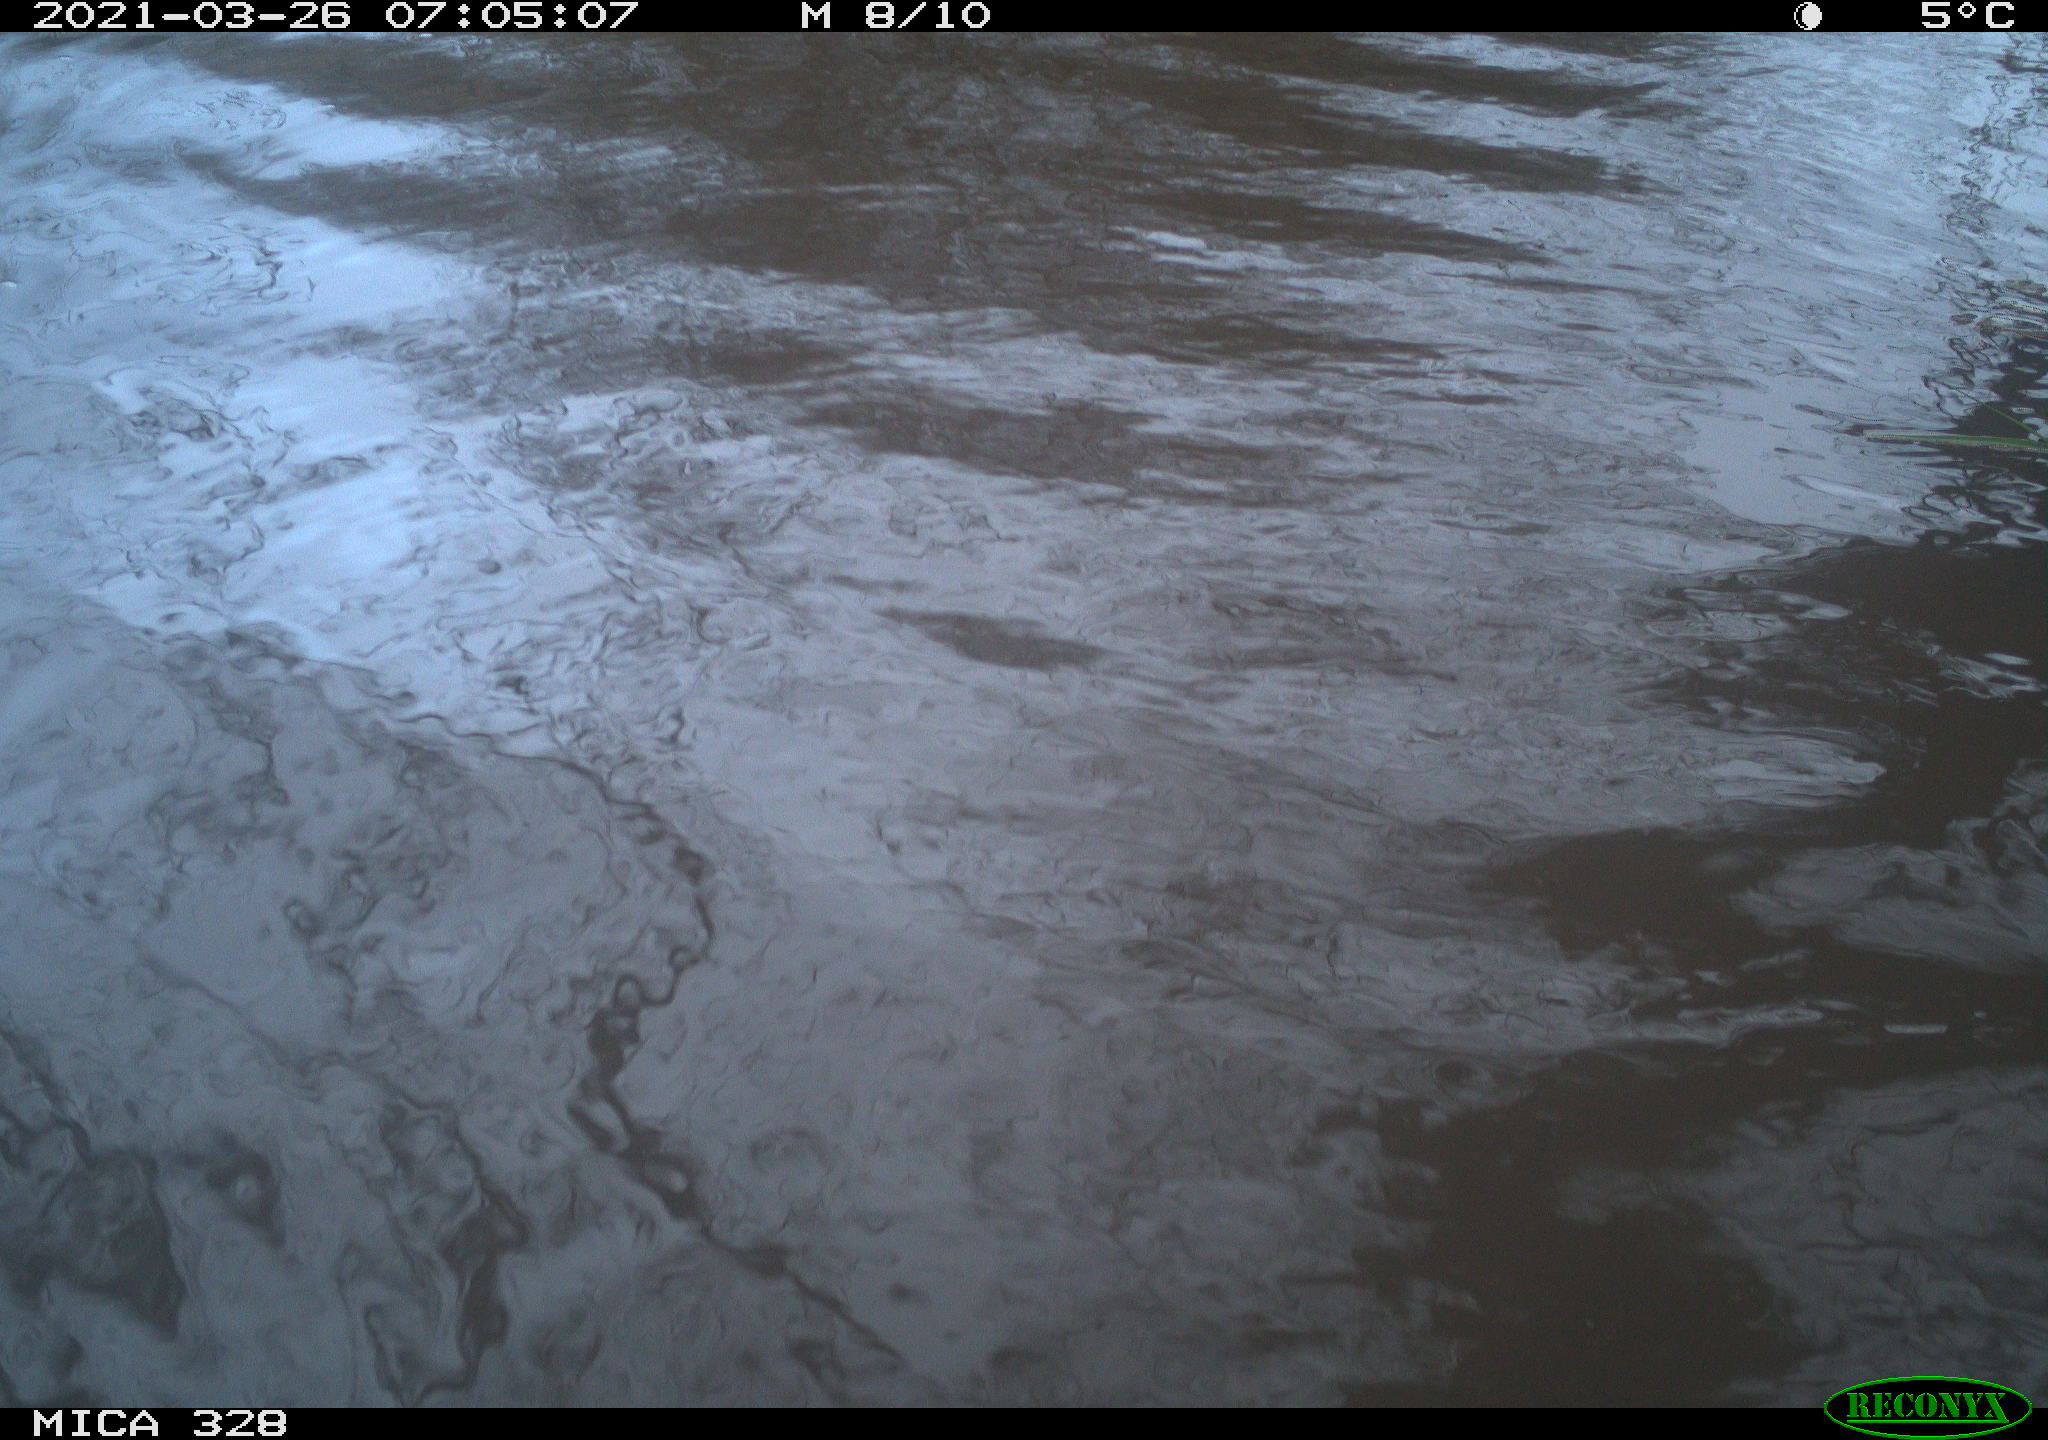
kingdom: Animalia
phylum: Chordata
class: Mammalia
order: Rodentia
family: Cricetidae
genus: Ondatra
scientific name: Ondatra zibethicus
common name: Muskrat
